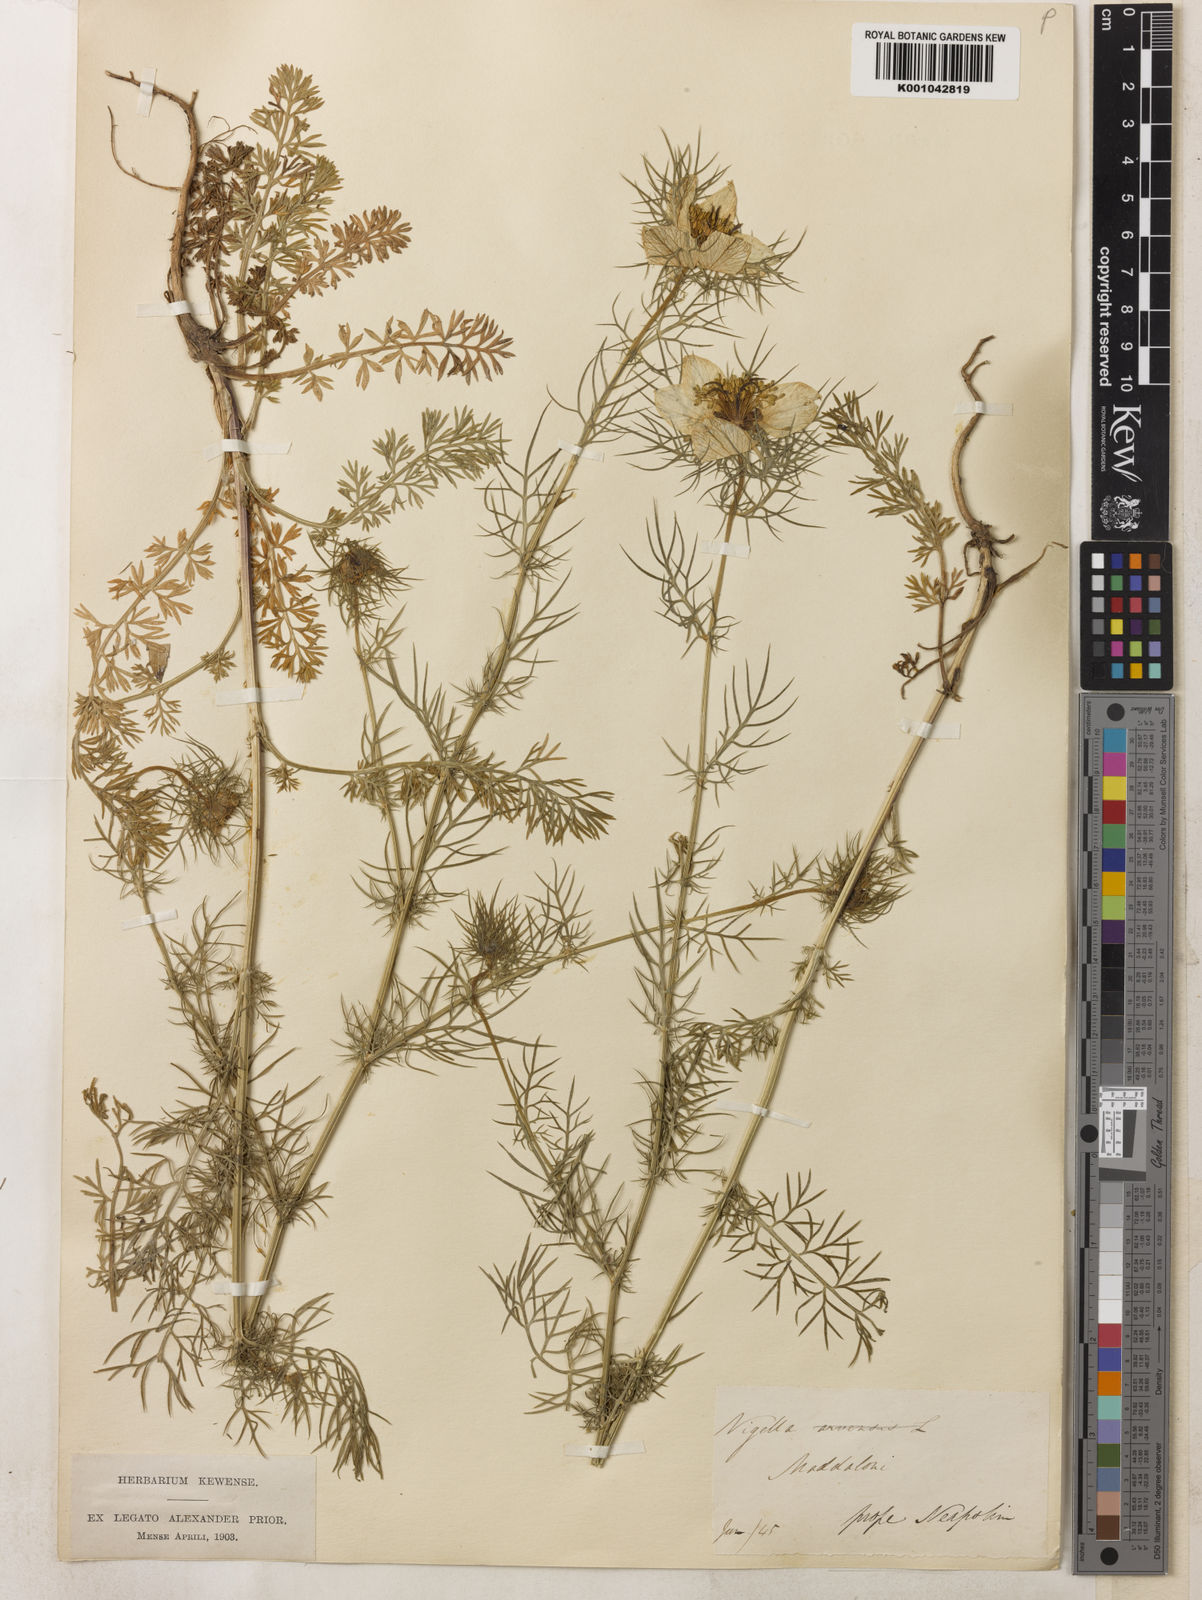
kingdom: Plantae
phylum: Tracheophyta
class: Magnoliopsida
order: Ranunculales
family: Ranunculaceae
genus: Nigella
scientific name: Nigella damascena
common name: Love-in-a-mist
